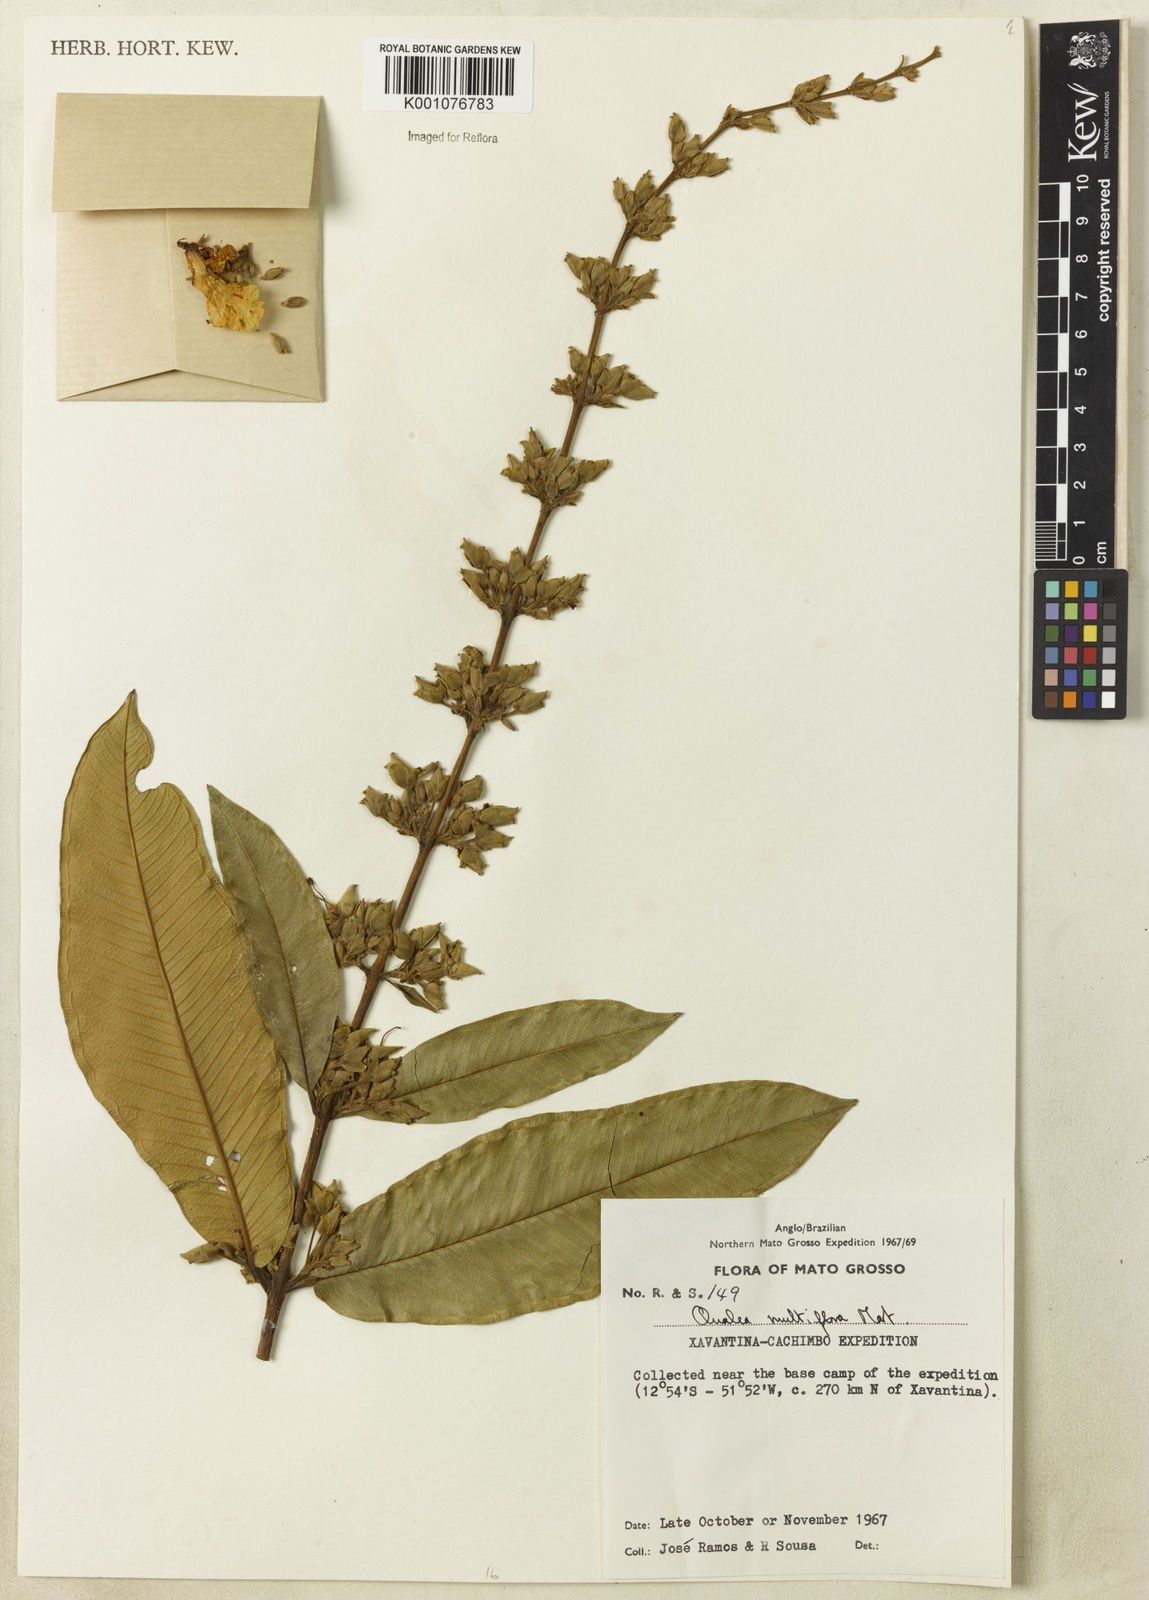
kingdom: Plantae
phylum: Tracheophyta
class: Magnoliopsida
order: Myrtales
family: Vochysiaceae
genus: Qualea
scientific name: Qualea multiflora
